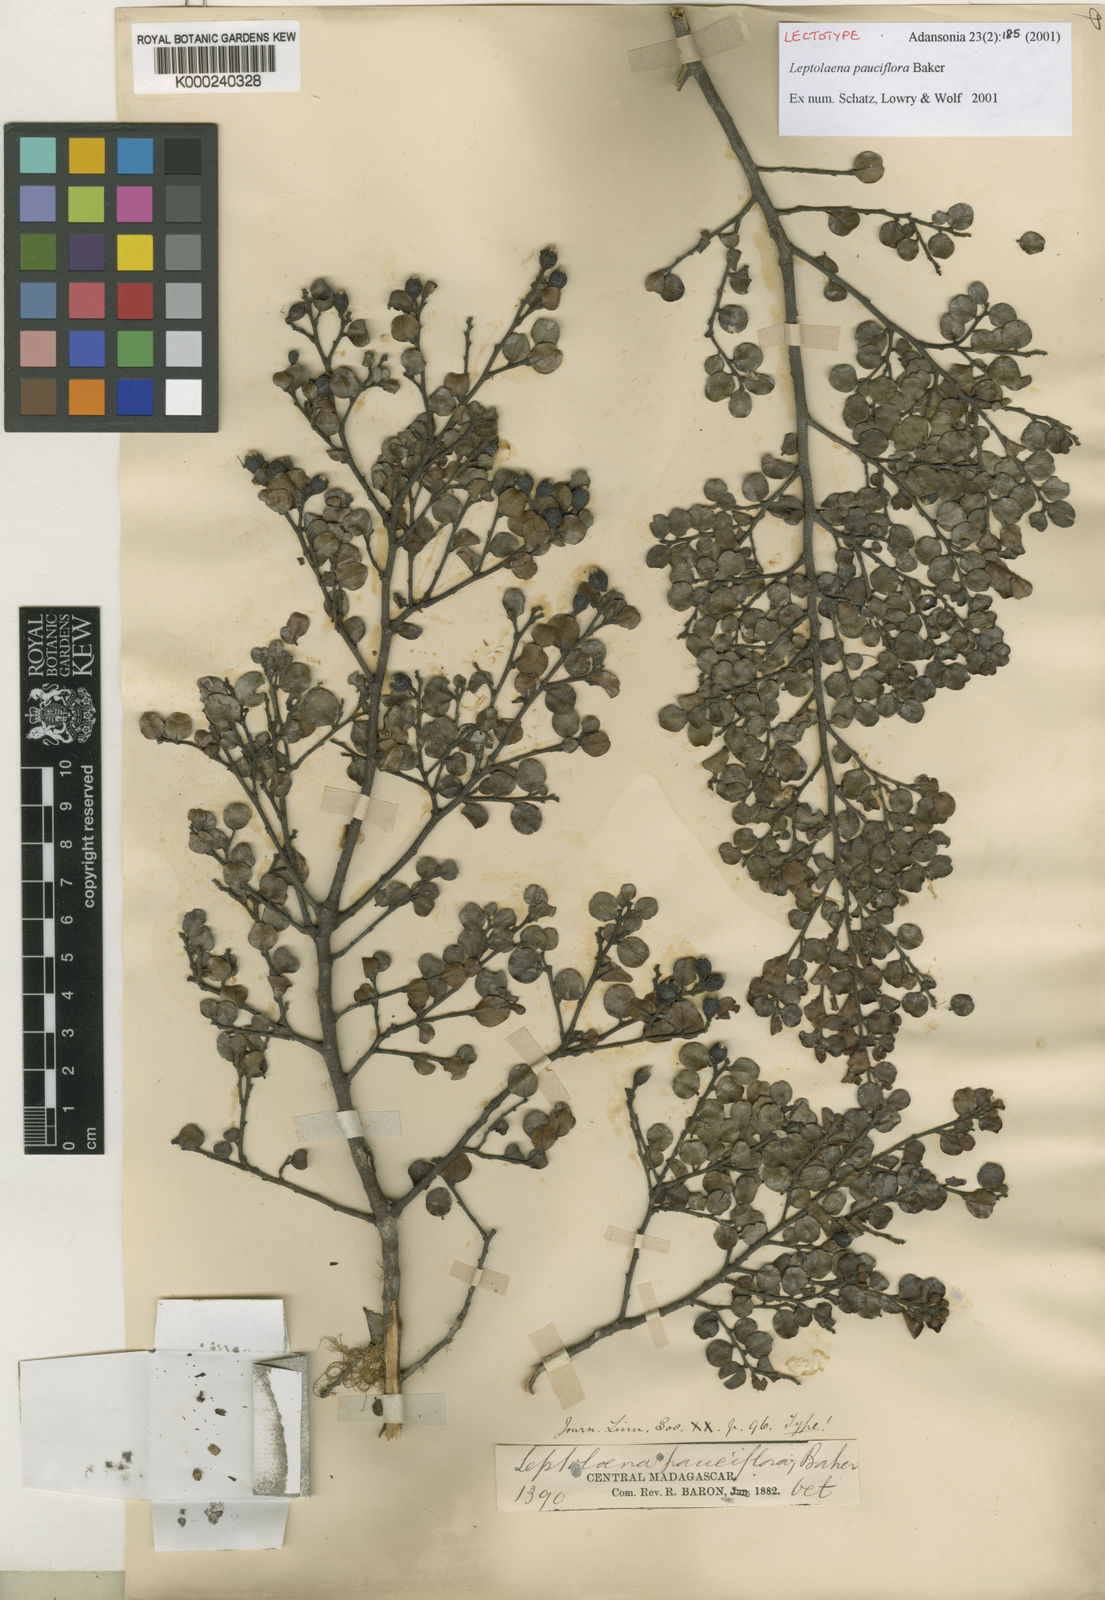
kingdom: Plantae
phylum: Tracheophyta
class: Magnoliopsida
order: Malvales
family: Sarcolaenaceae
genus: Leptolaena
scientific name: Leptolaena pauciflora
